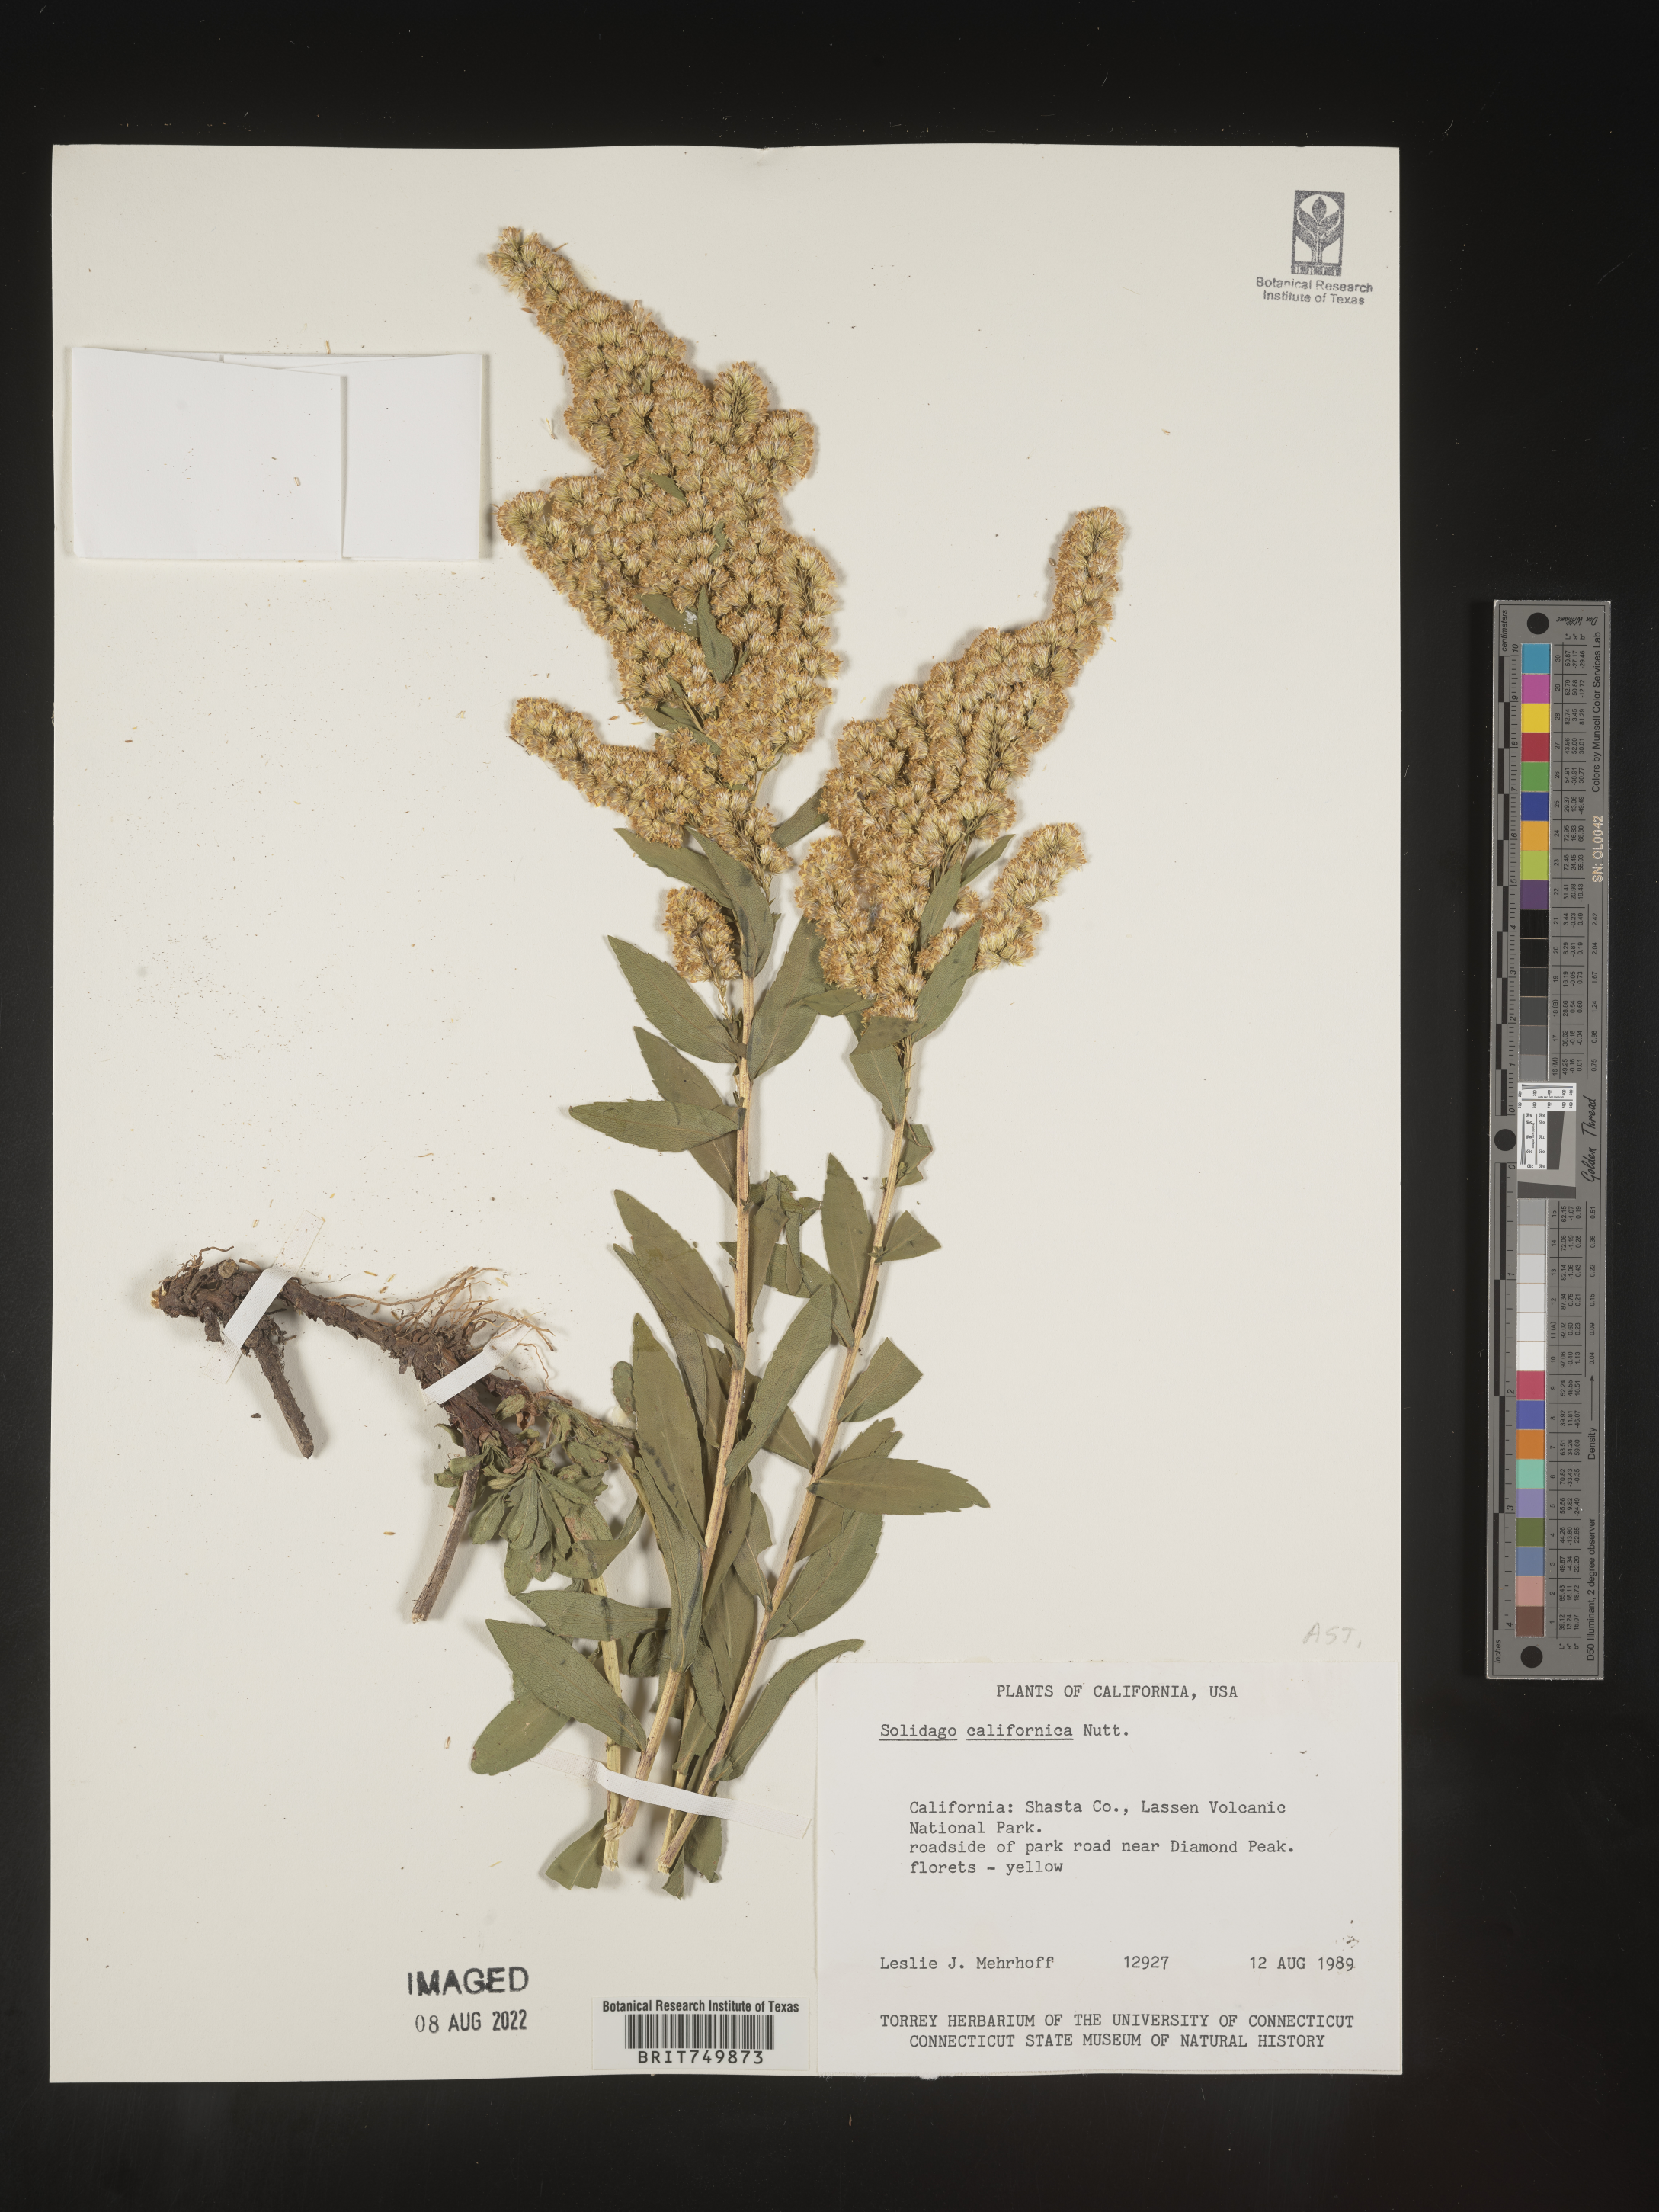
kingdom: Plantae
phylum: Tracheophyta
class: Magnoliopsida
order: Asterales
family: Asteraceae
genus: Solidago
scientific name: Solidago californica
